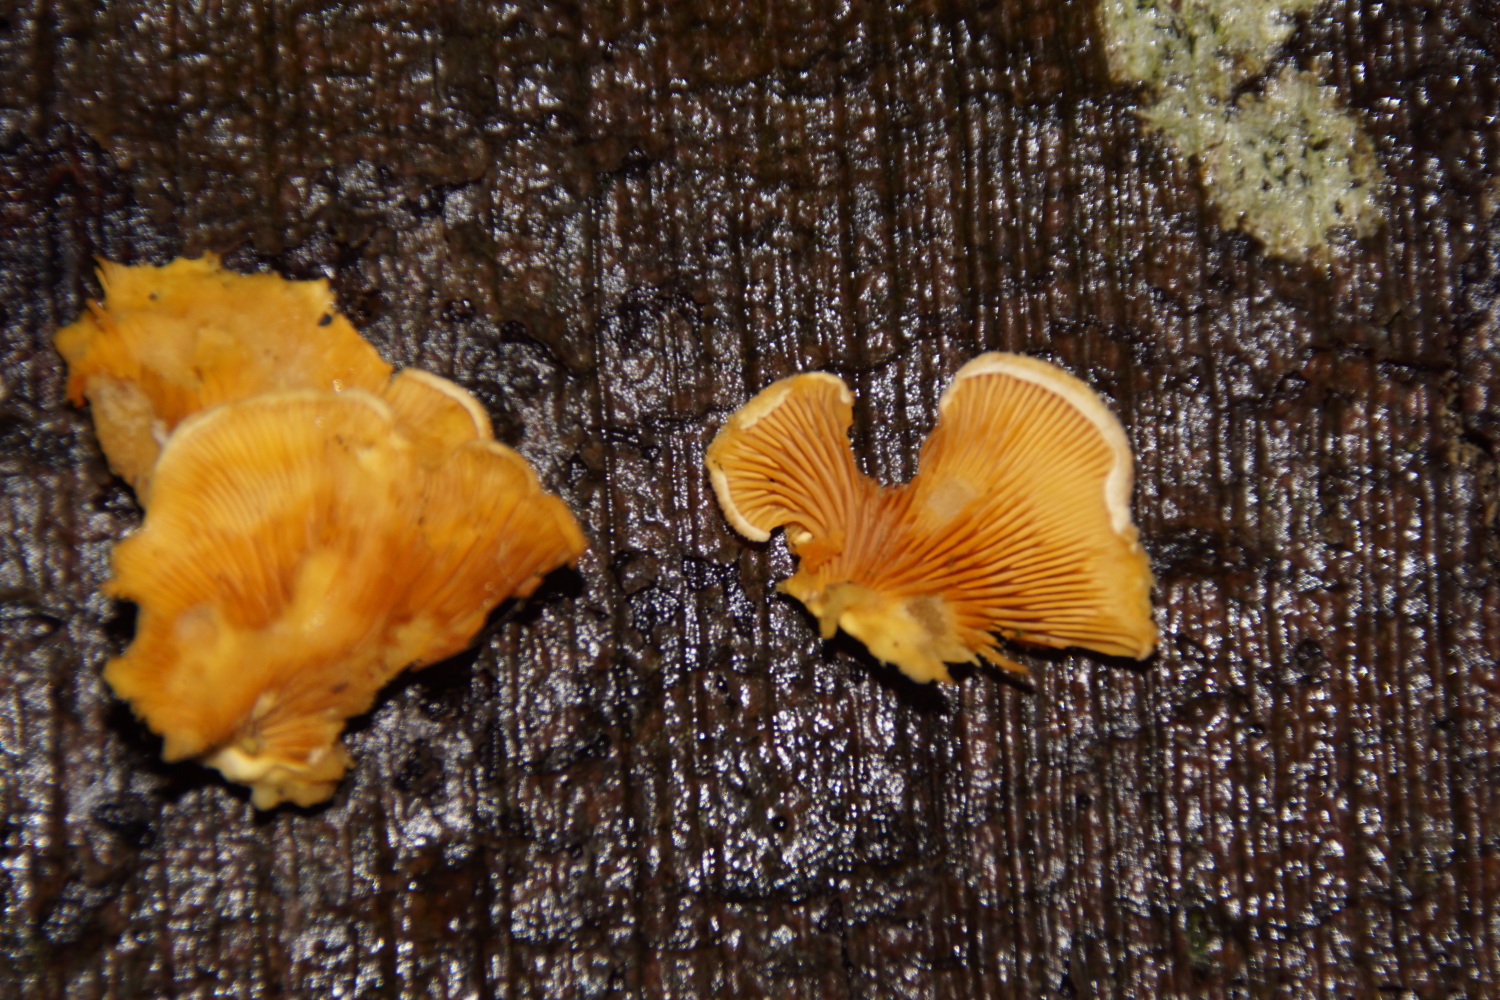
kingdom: Fungi
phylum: Basidiomycota
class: Agaricomycetes
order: Agaricales
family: Phyllotopsidaceae
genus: Phyllotopsis
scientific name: Phyllotopsis nidulans
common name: okkerblad
